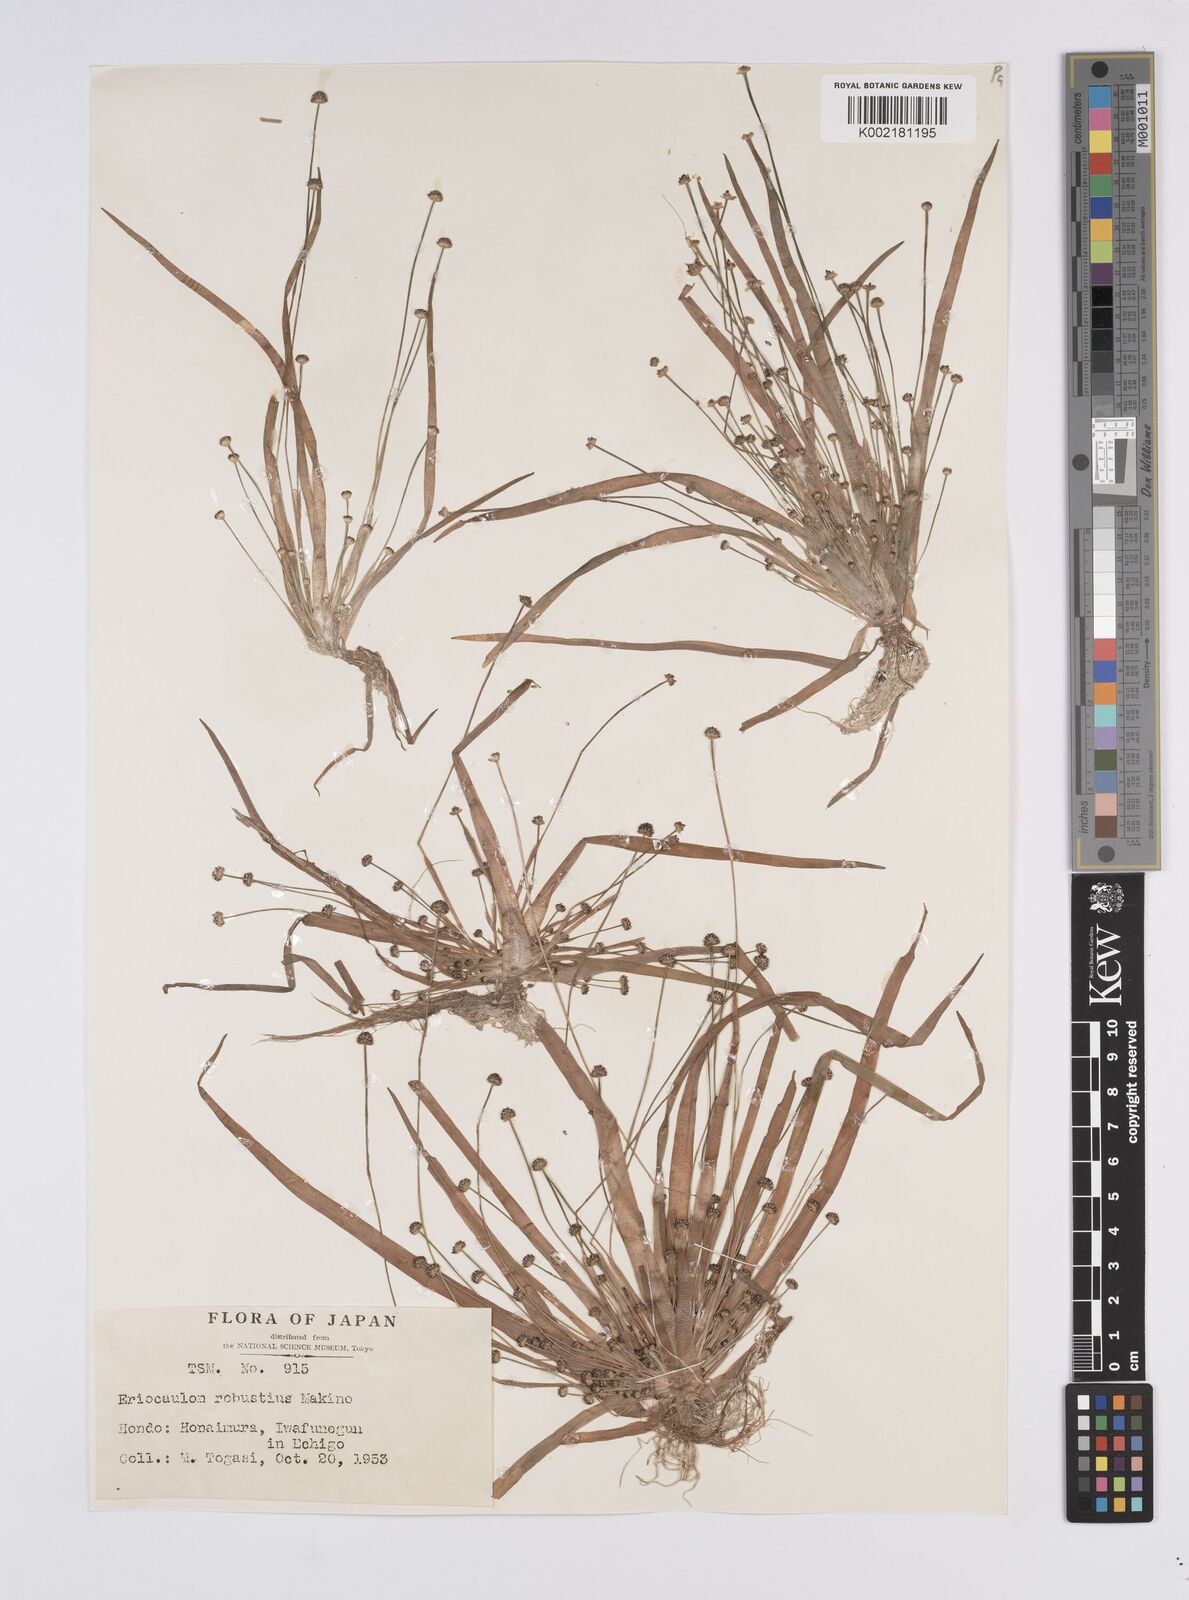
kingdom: Plantae
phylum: Tracheophyta
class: Liliopsida
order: Poales
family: Eriocaulaceae
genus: Eriocaulon
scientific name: Eriocaulon alpestre
